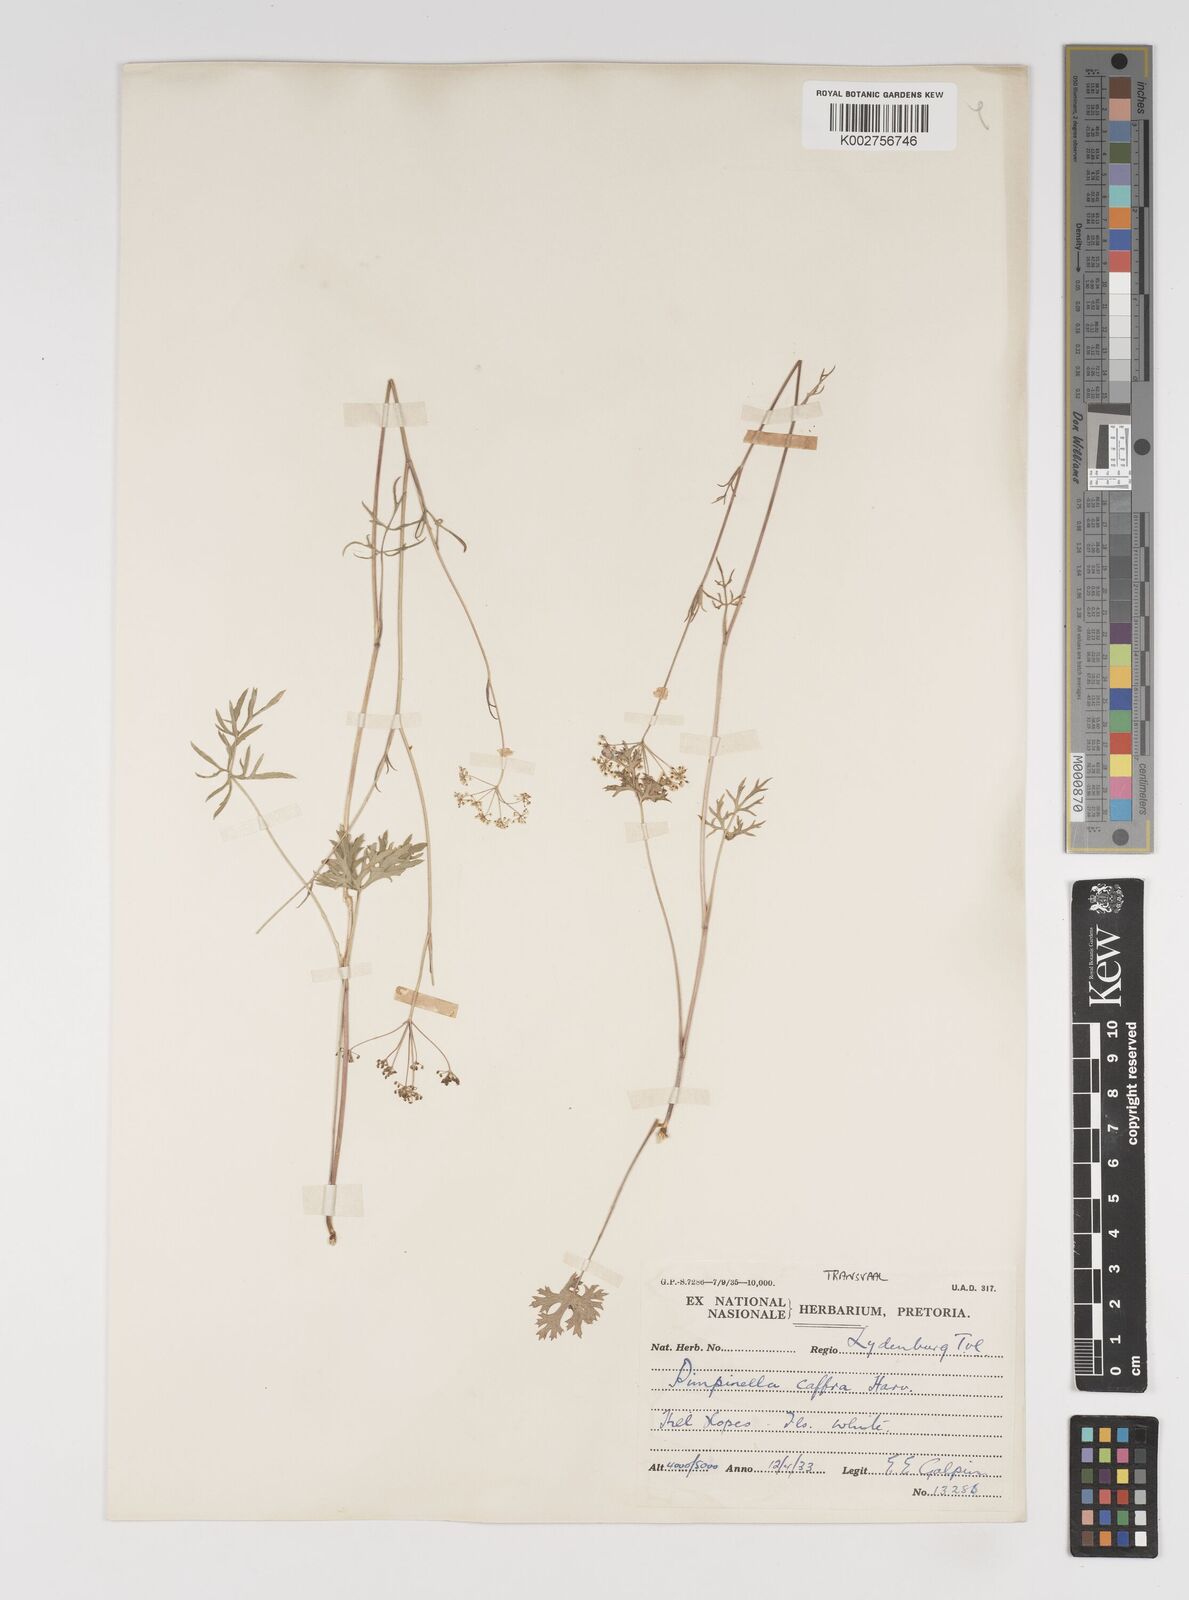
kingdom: Plantae
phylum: Tracheophyta
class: Magnoliopsida
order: Apiales
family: Apiaceae
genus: Pimpinella
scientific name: Pimpinella transvaalensis
